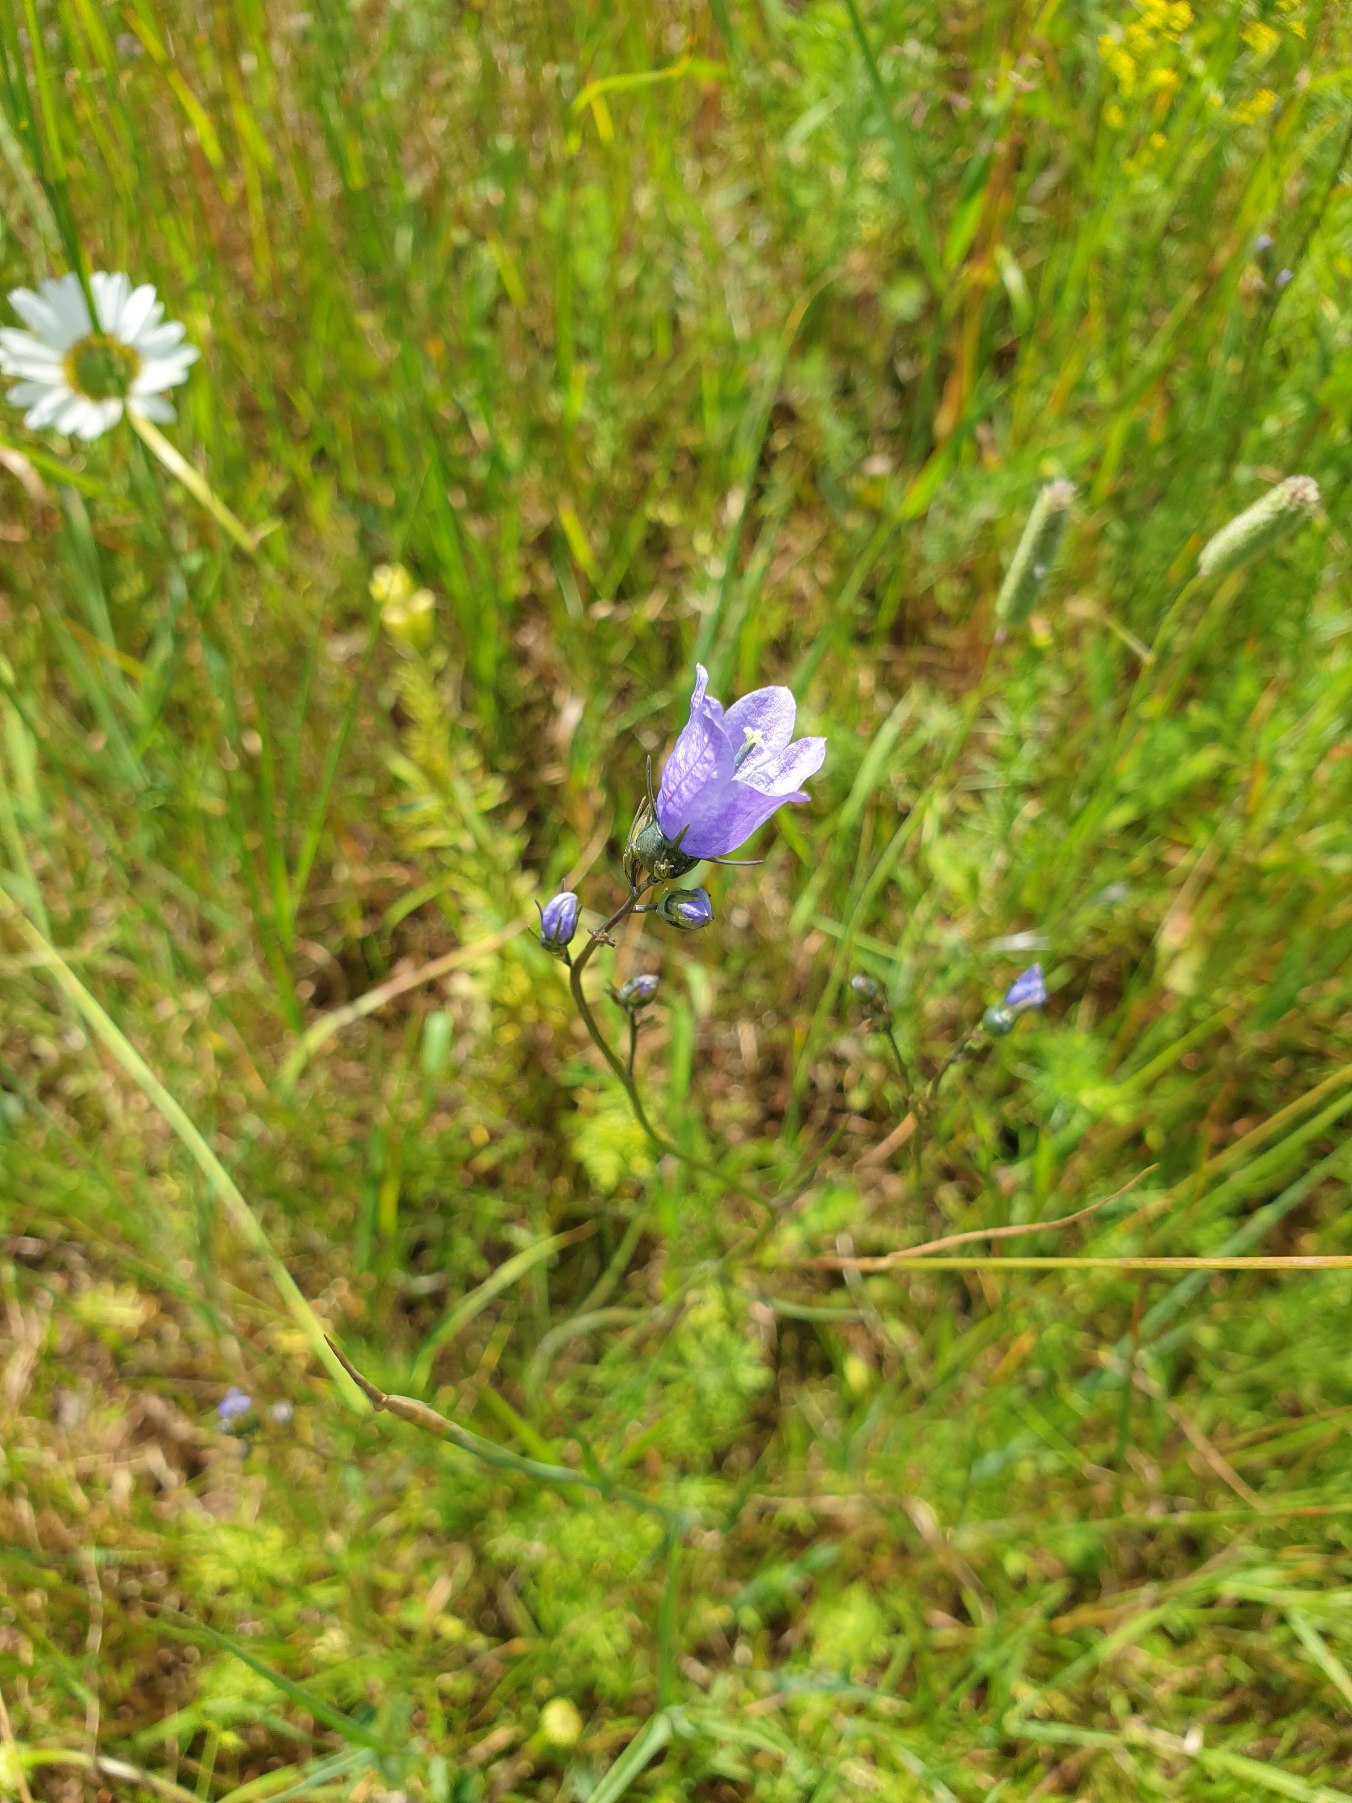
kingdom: Plantae
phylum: Tracheophyta
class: Magnoliopsida
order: Asterales
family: Campanulaceae
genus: Campanula
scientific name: Campanula rotundifolia
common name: Liden klokke
